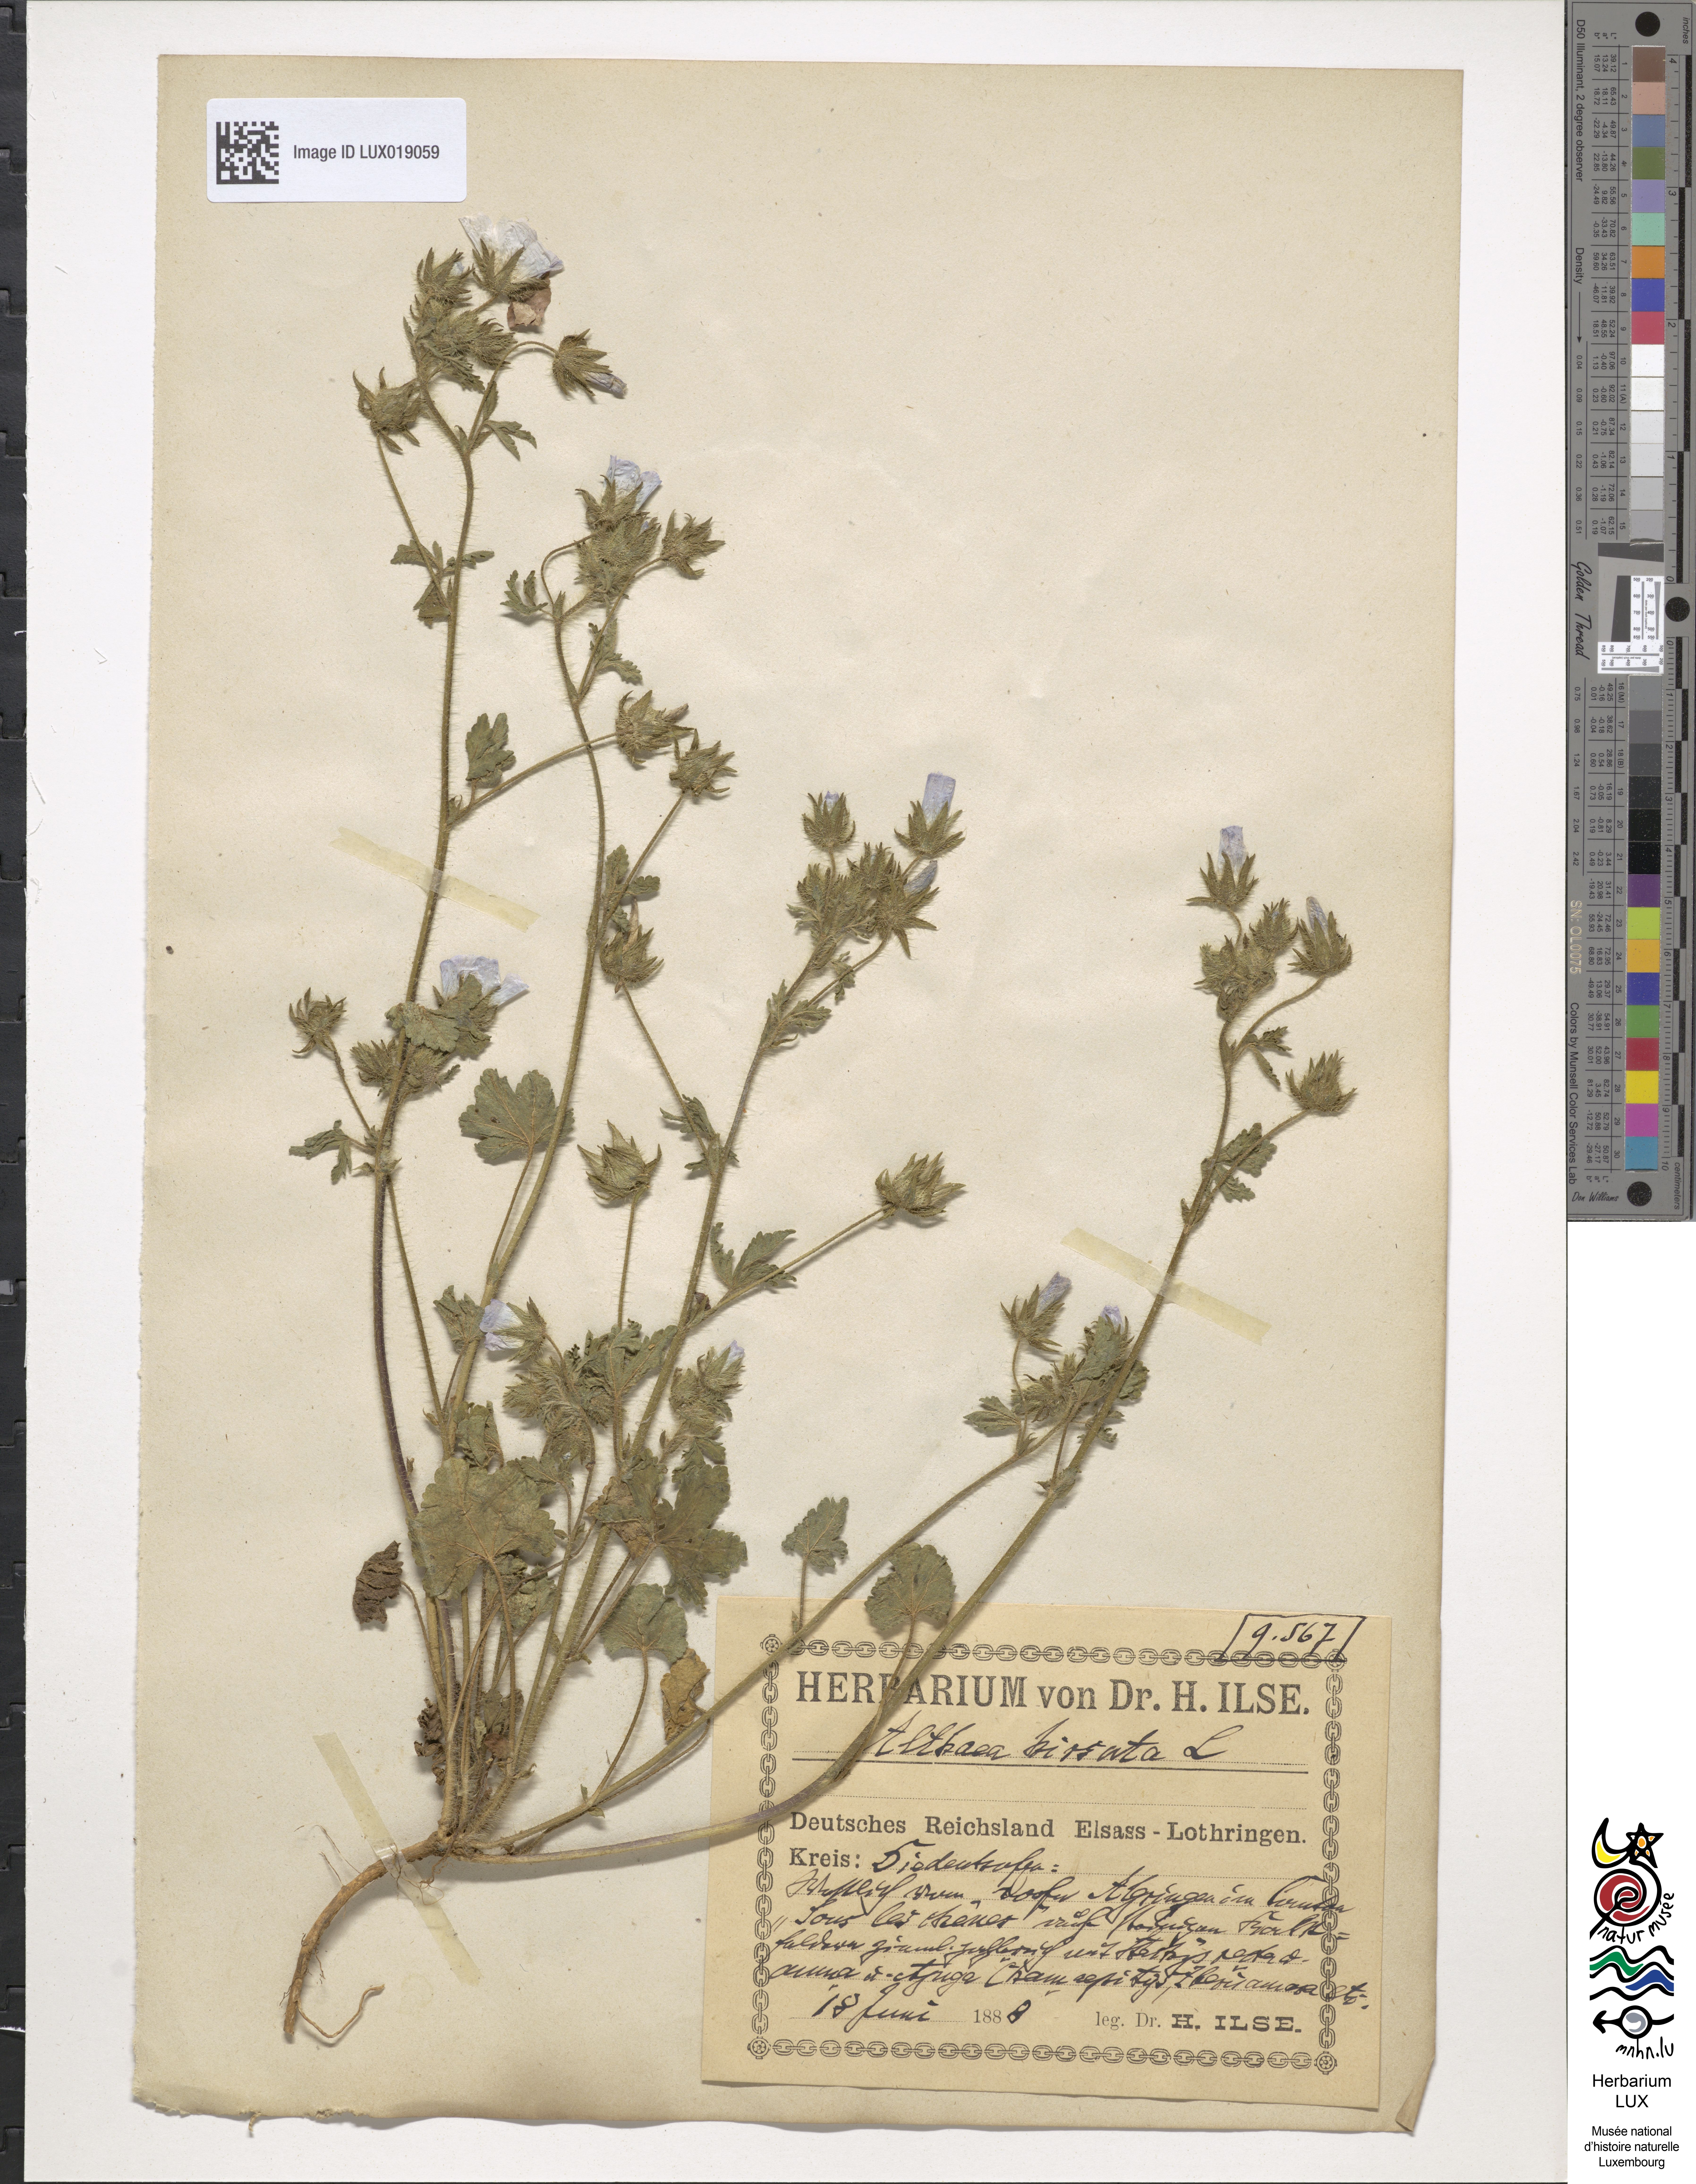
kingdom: Plantae
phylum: Tracheophyta
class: Magnoliopsida
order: Malvales
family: Malvaceae
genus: Althaea
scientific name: Althaea hirsuta
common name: Rough marsh-mallow
